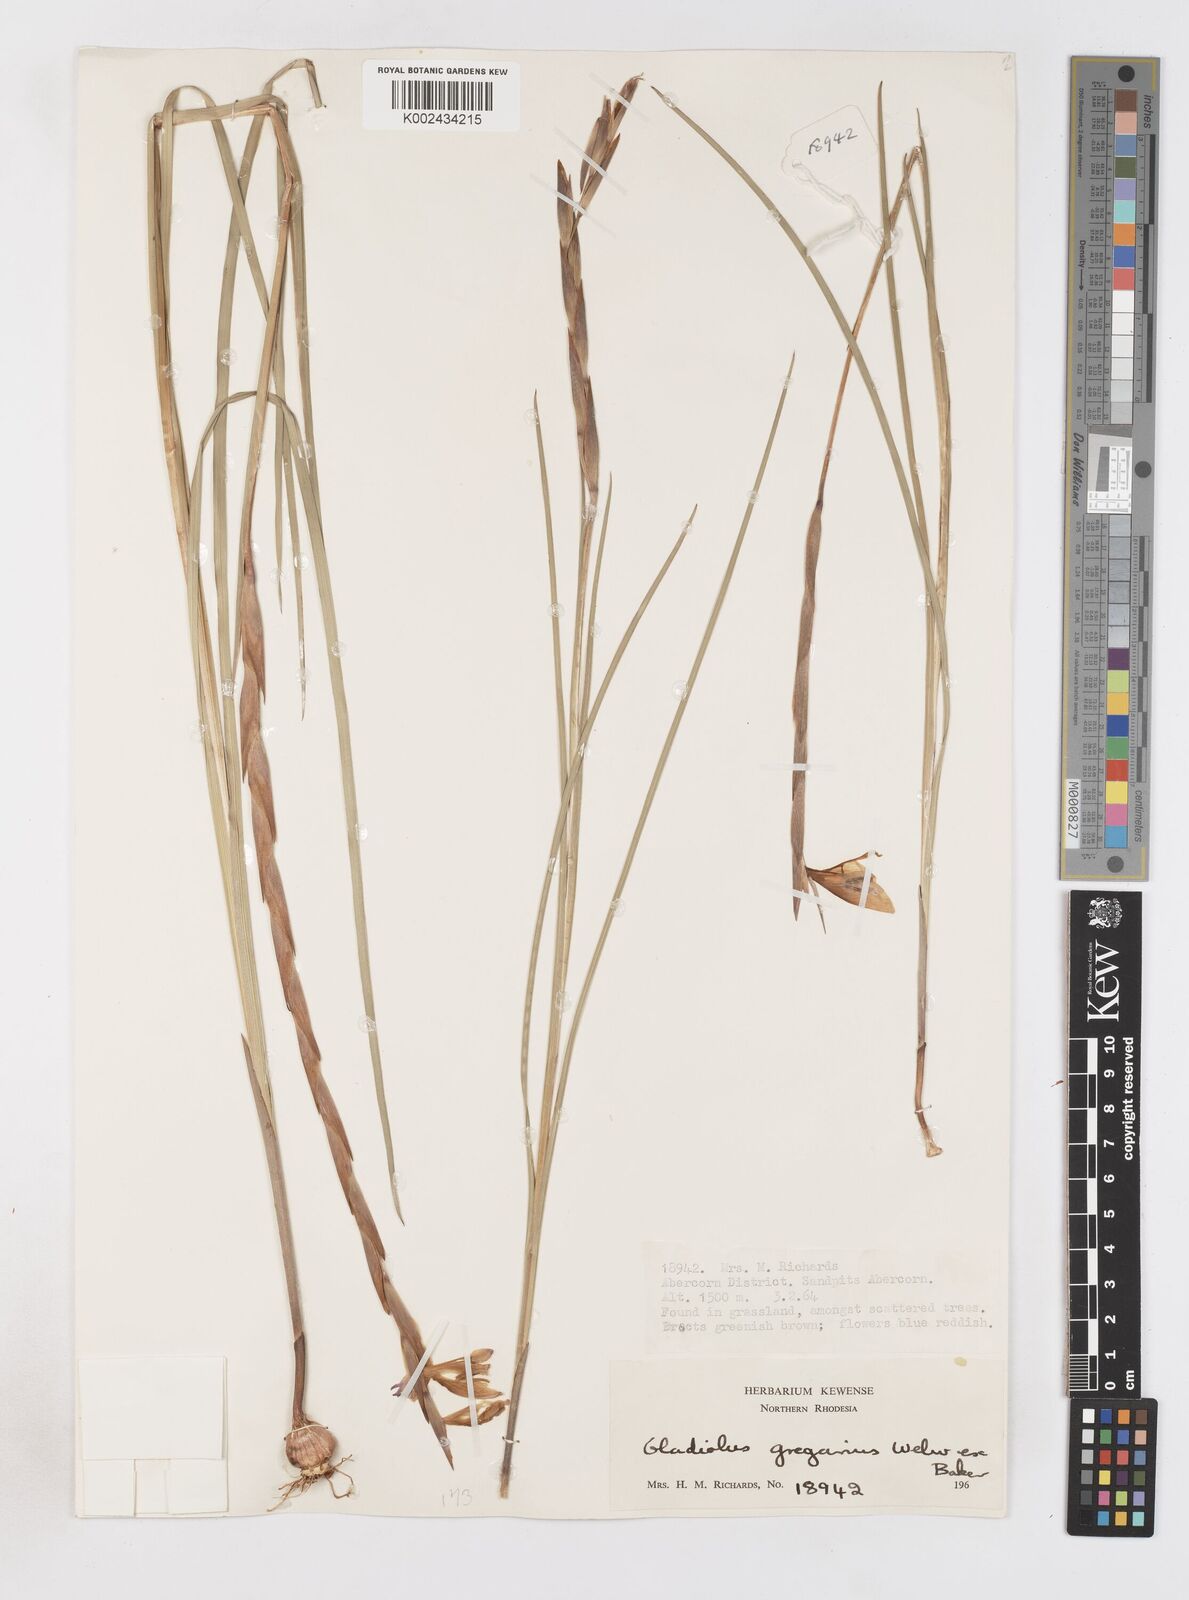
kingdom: Plantae
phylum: Tracheophyta
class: Liliopsida
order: Asparagales
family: Iridaceae
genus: Gladiolus
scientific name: Gladiolus gregarius
